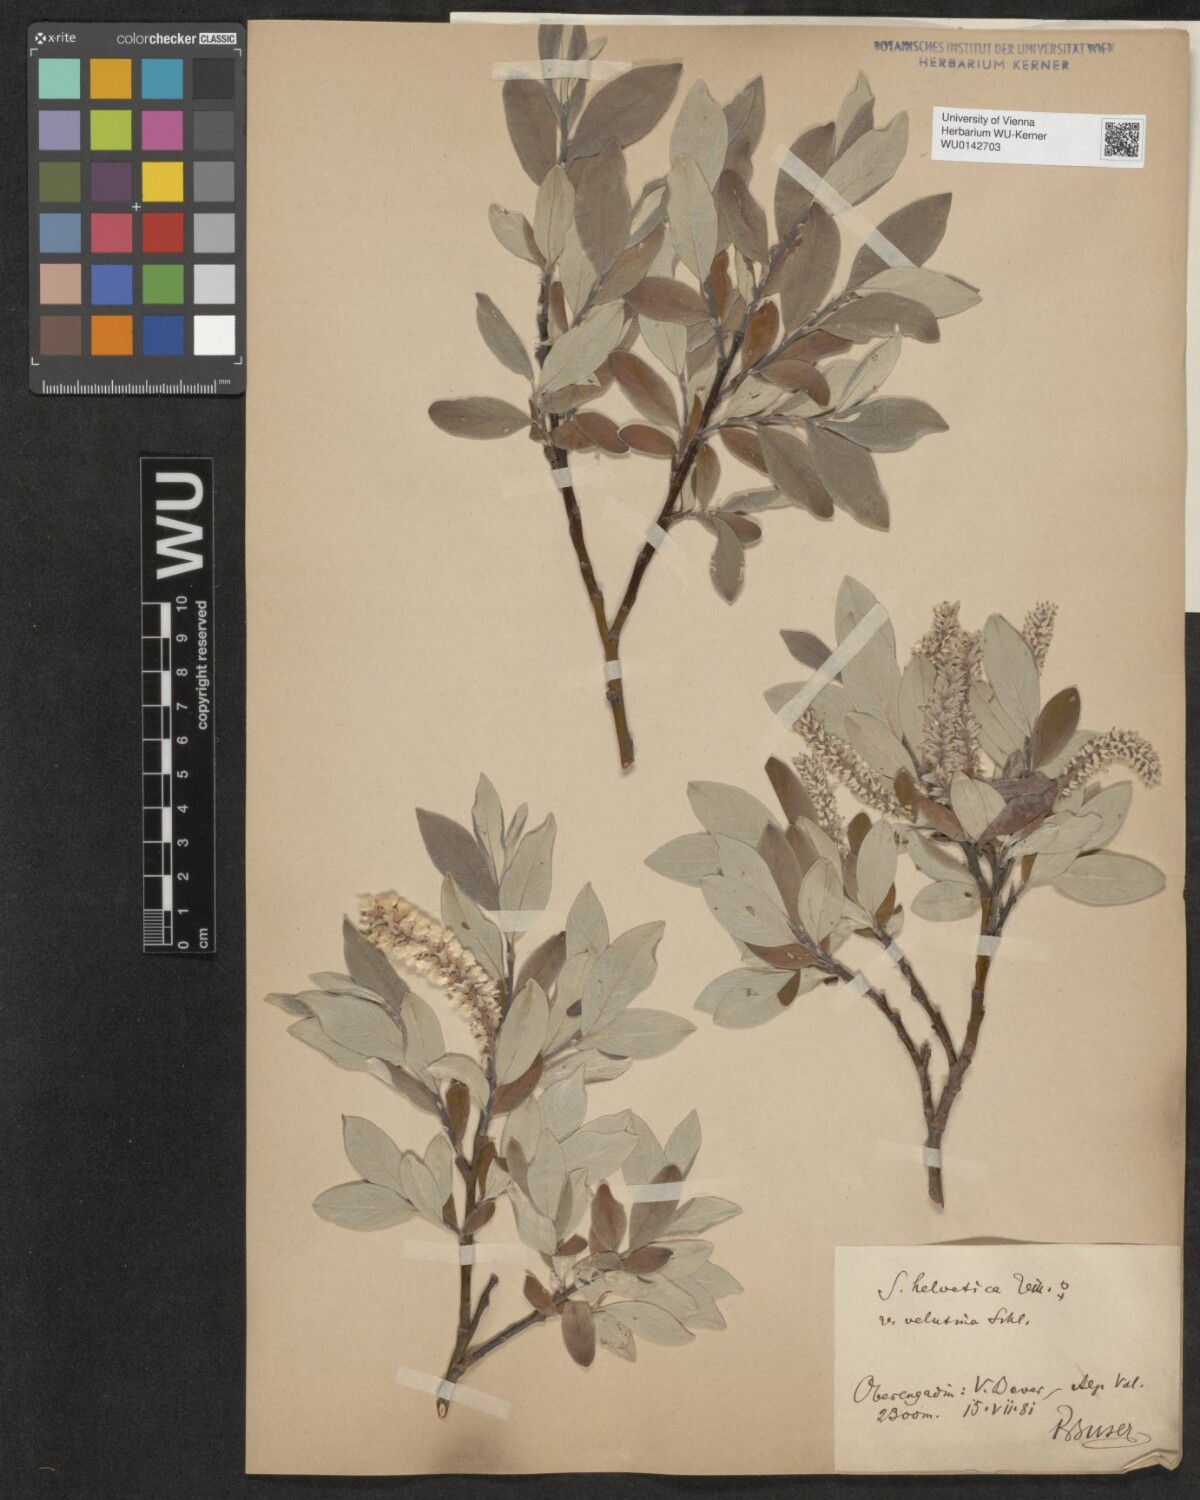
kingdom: Plantae
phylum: Tracheophyta
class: Magnoliopsida
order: Malpighiales
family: Salicaceae
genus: Salix
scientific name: Salix helvetica
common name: Swiss willow
